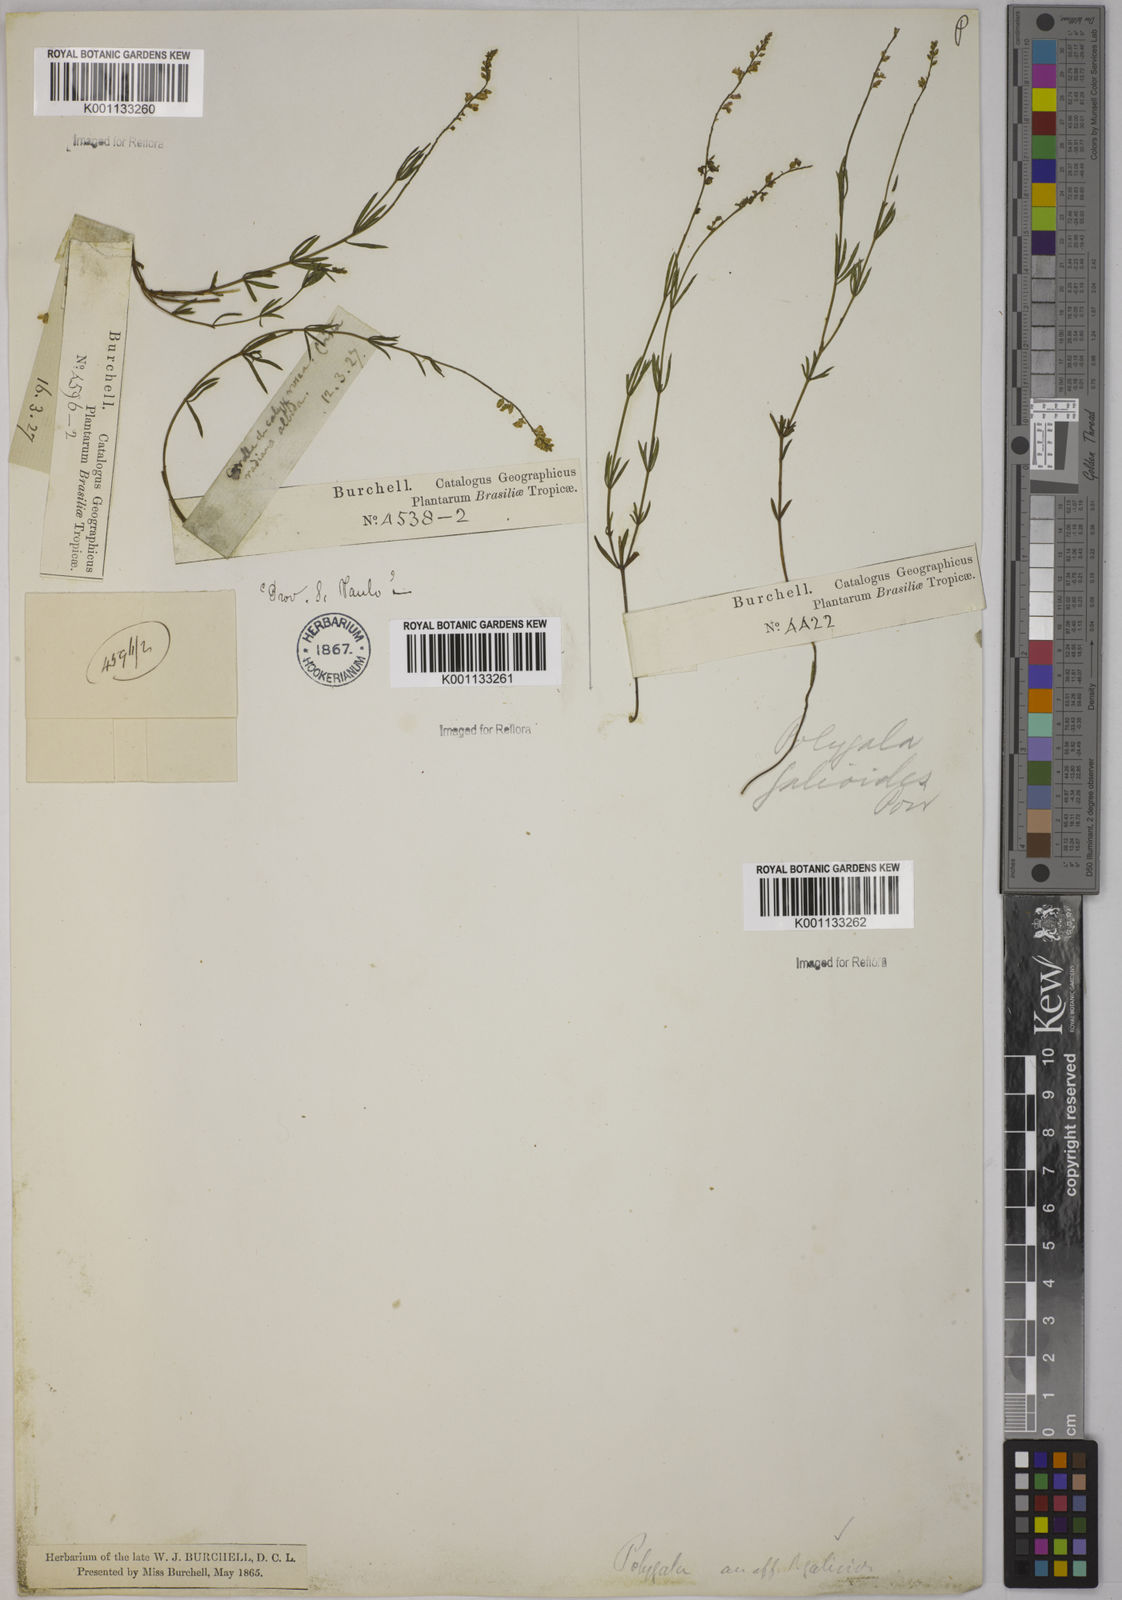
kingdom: Plantae
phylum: Tracheophyta
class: Magnoliopsida
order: Fabales
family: Polygalaceae
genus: Polygala
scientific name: Polygala asperuloides
